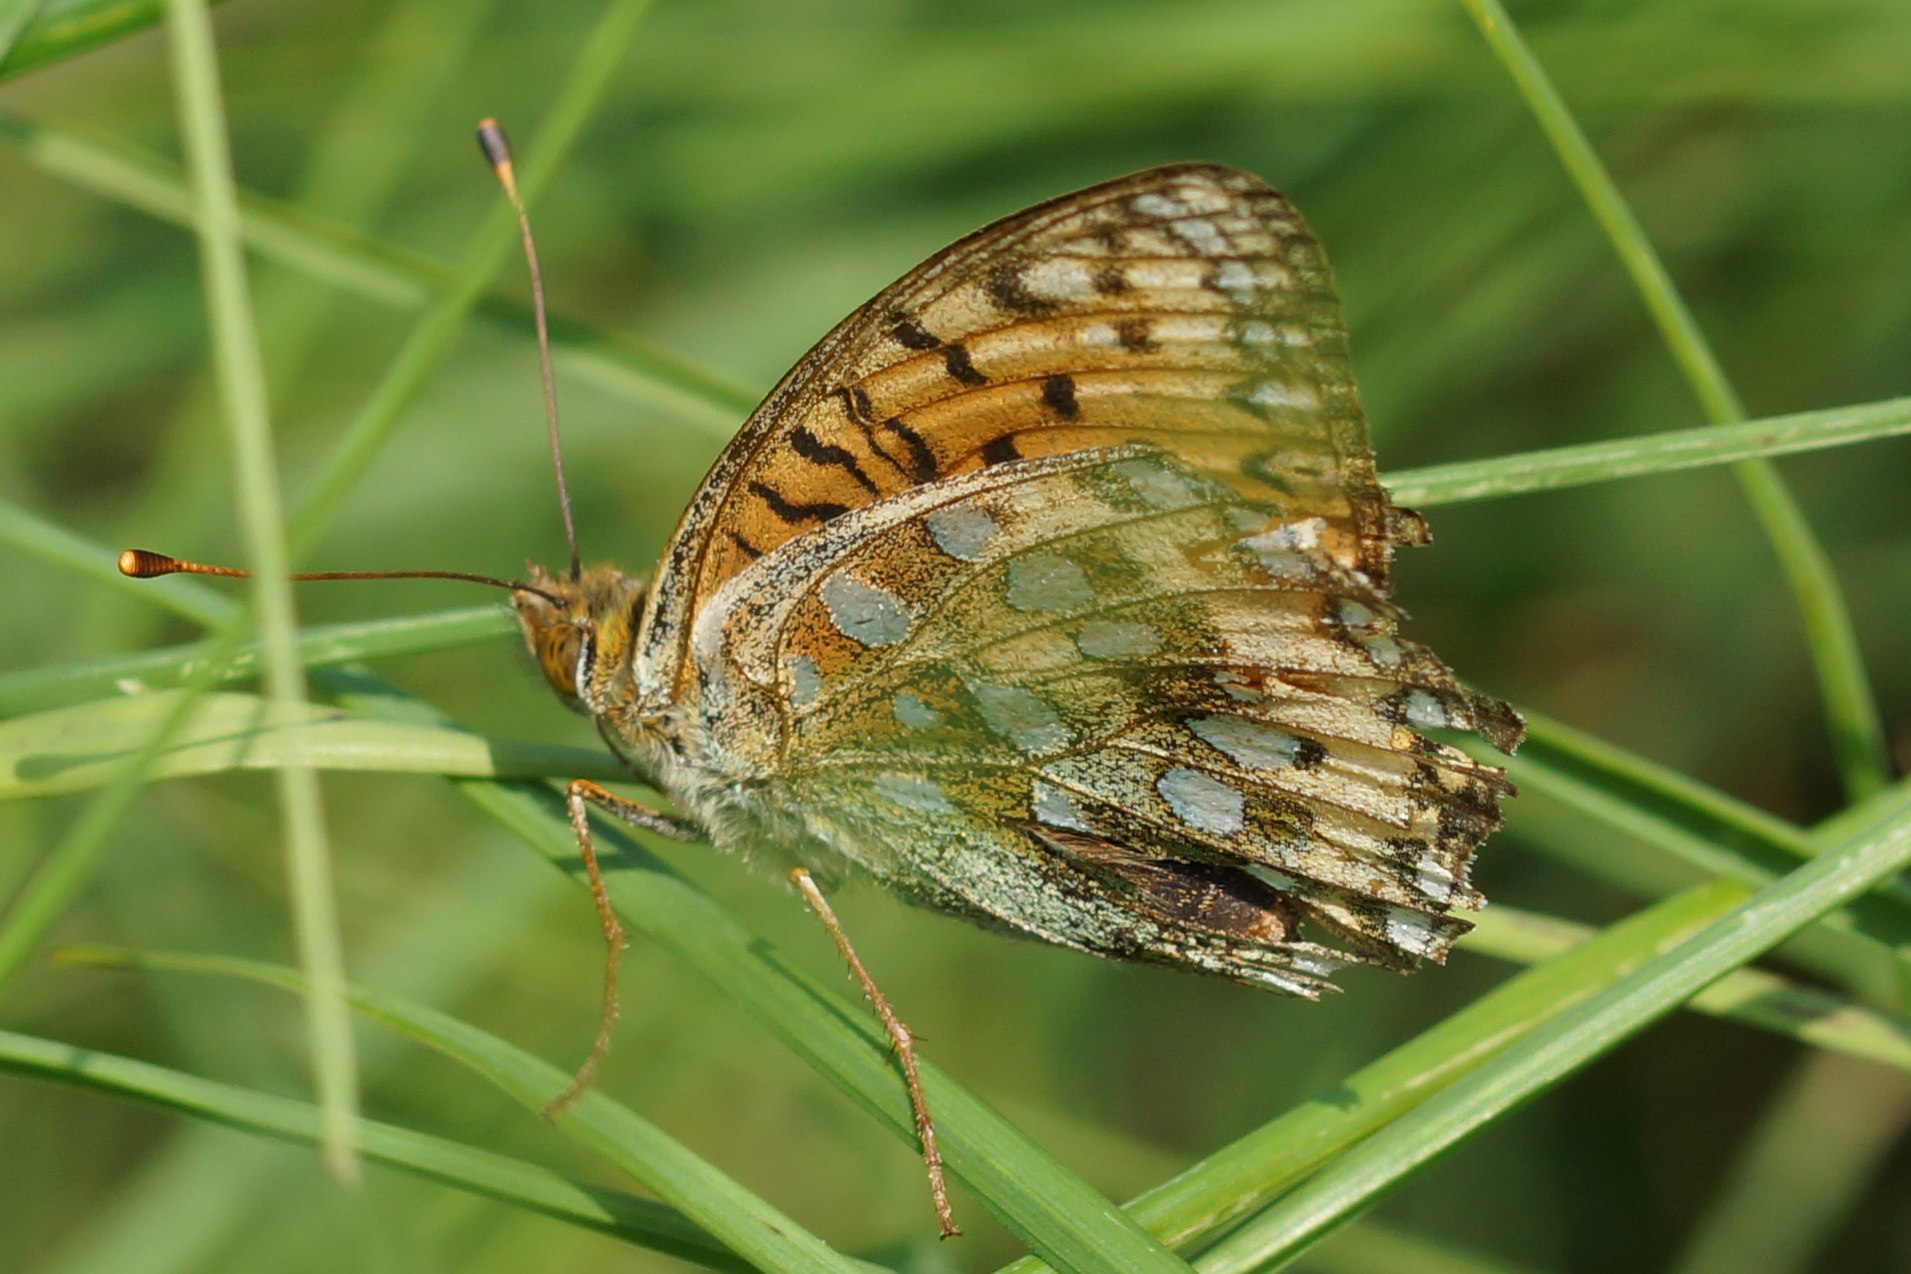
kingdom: Animalia
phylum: Arthropoda
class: Insecta
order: Lepidoptera
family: Nymphalidae
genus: Speyeria
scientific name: Speyeria aglaja
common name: Markperlemorsommerfugl
